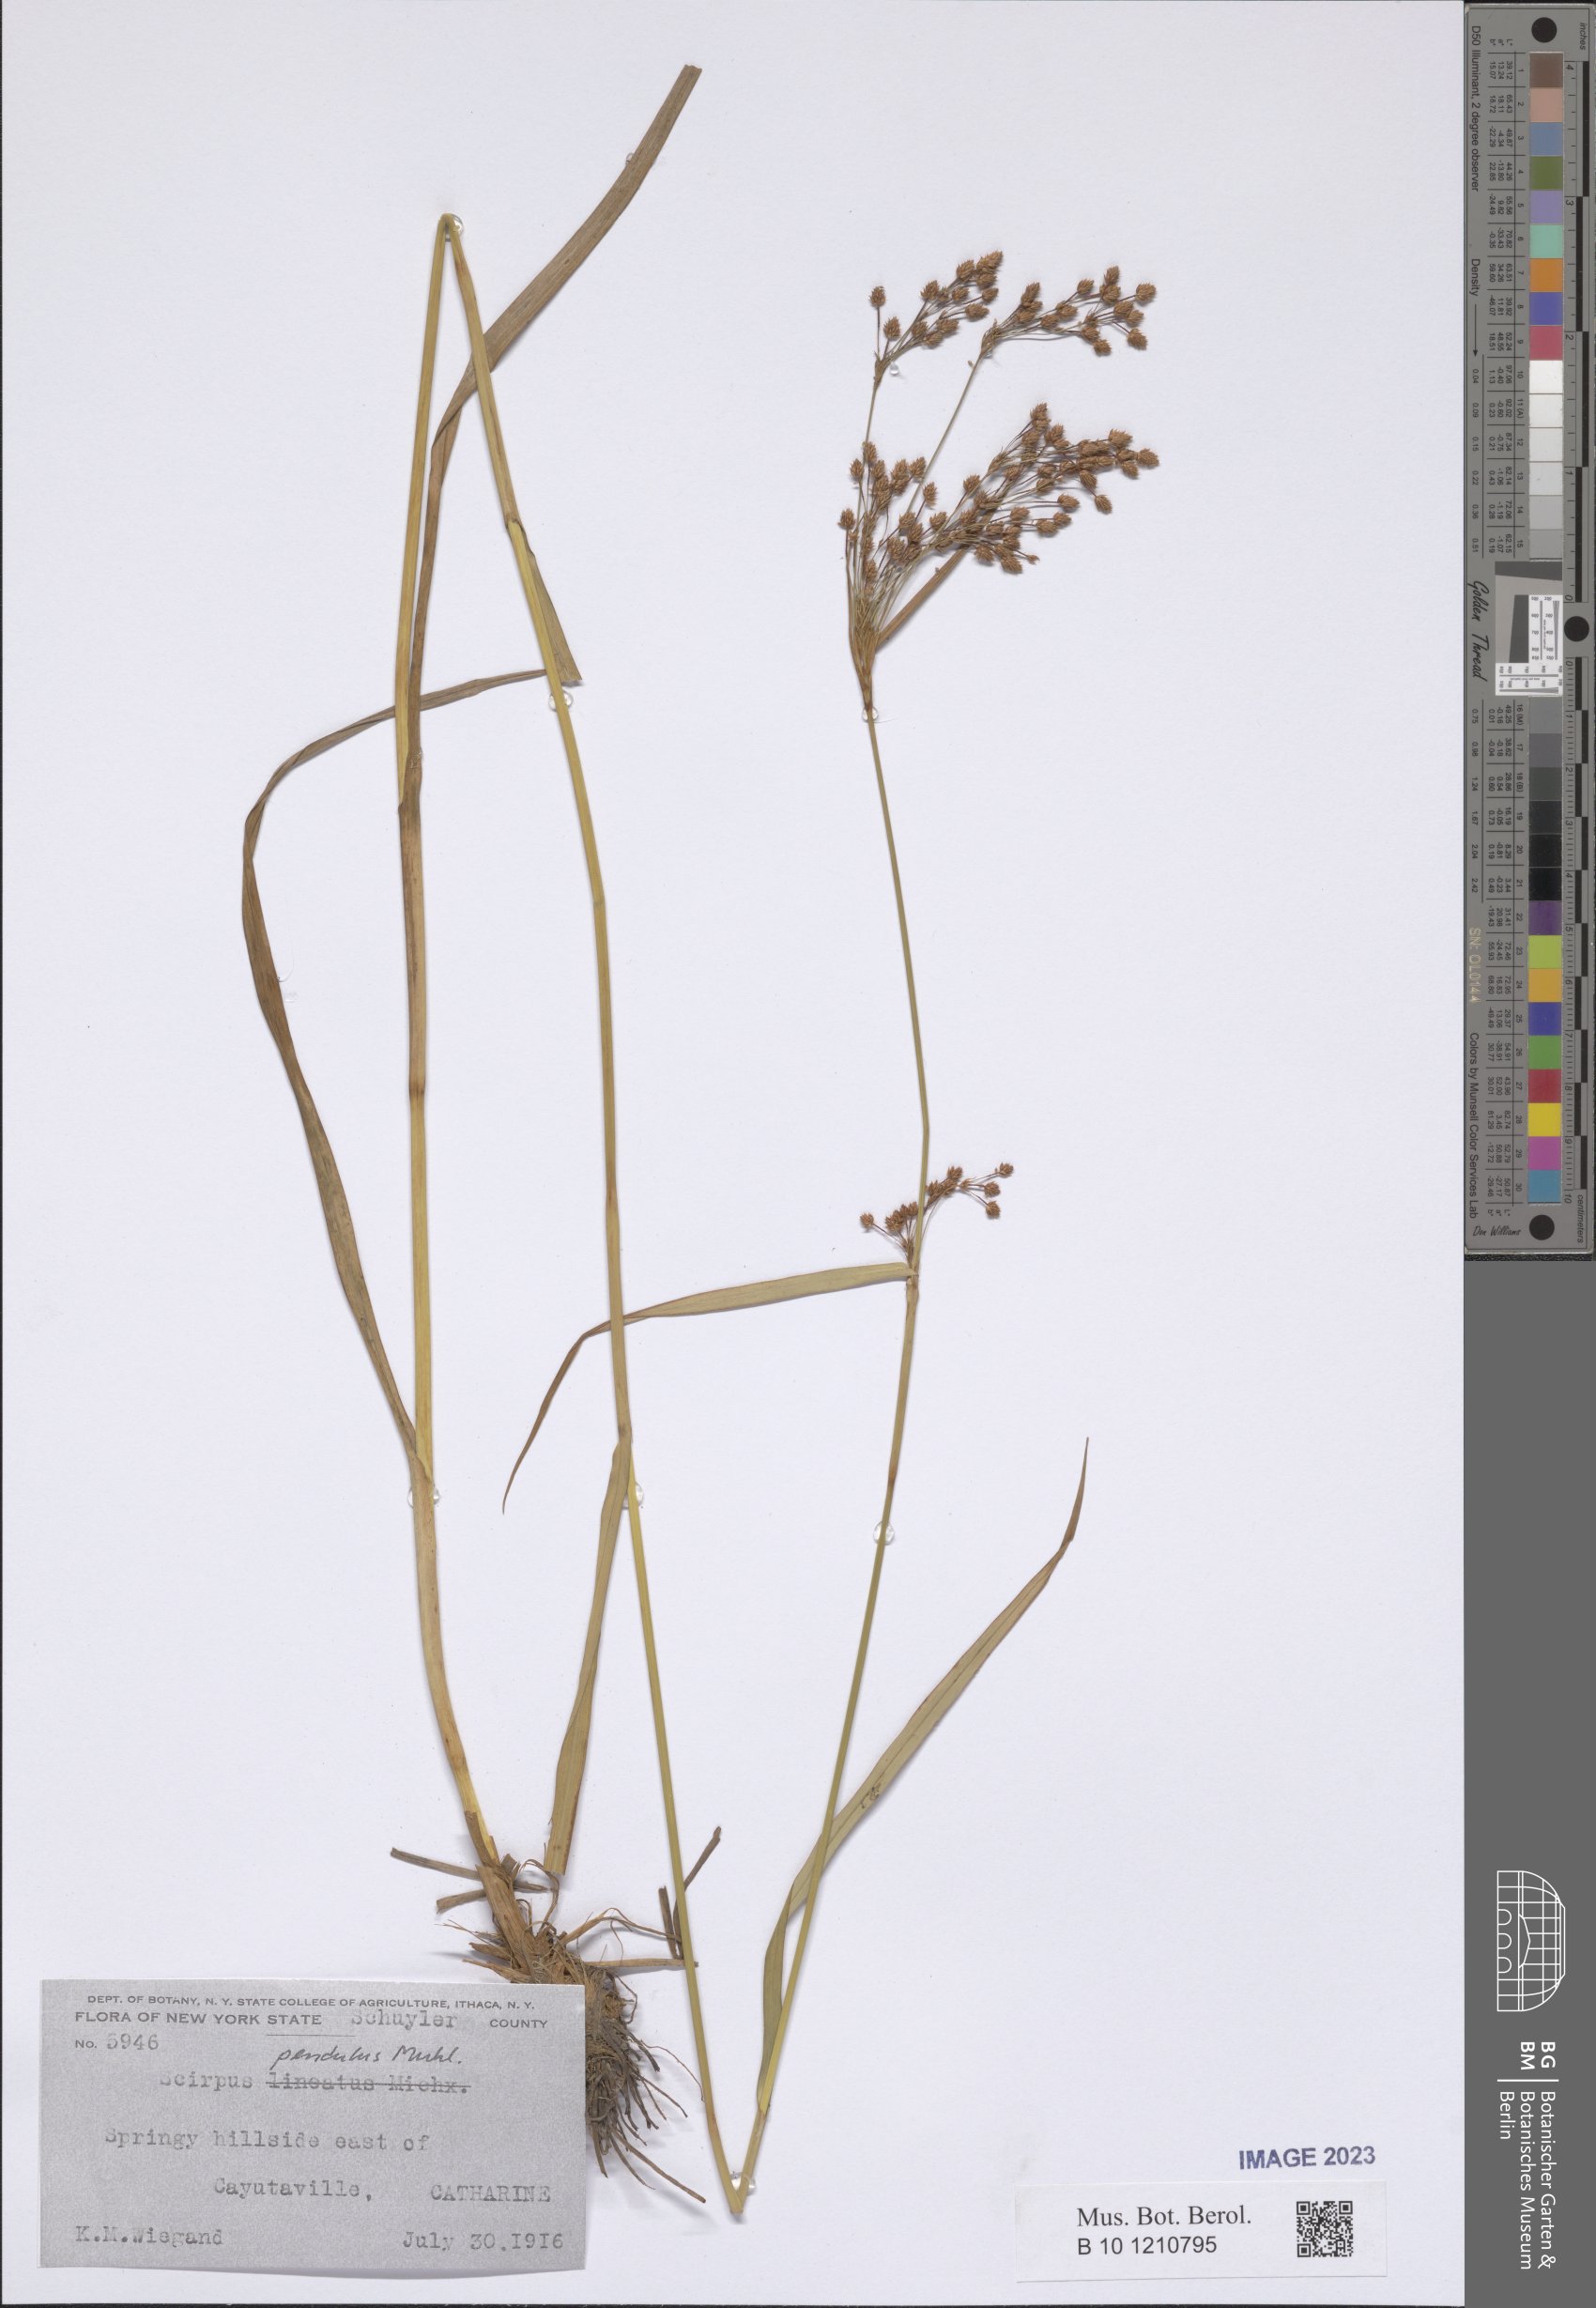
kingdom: Plantae
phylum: Tracheophyta
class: Liliopsida
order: Poales
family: Cyperaceae
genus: Scirpus
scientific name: Scirpus pendulus
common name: Nodding bulrush
